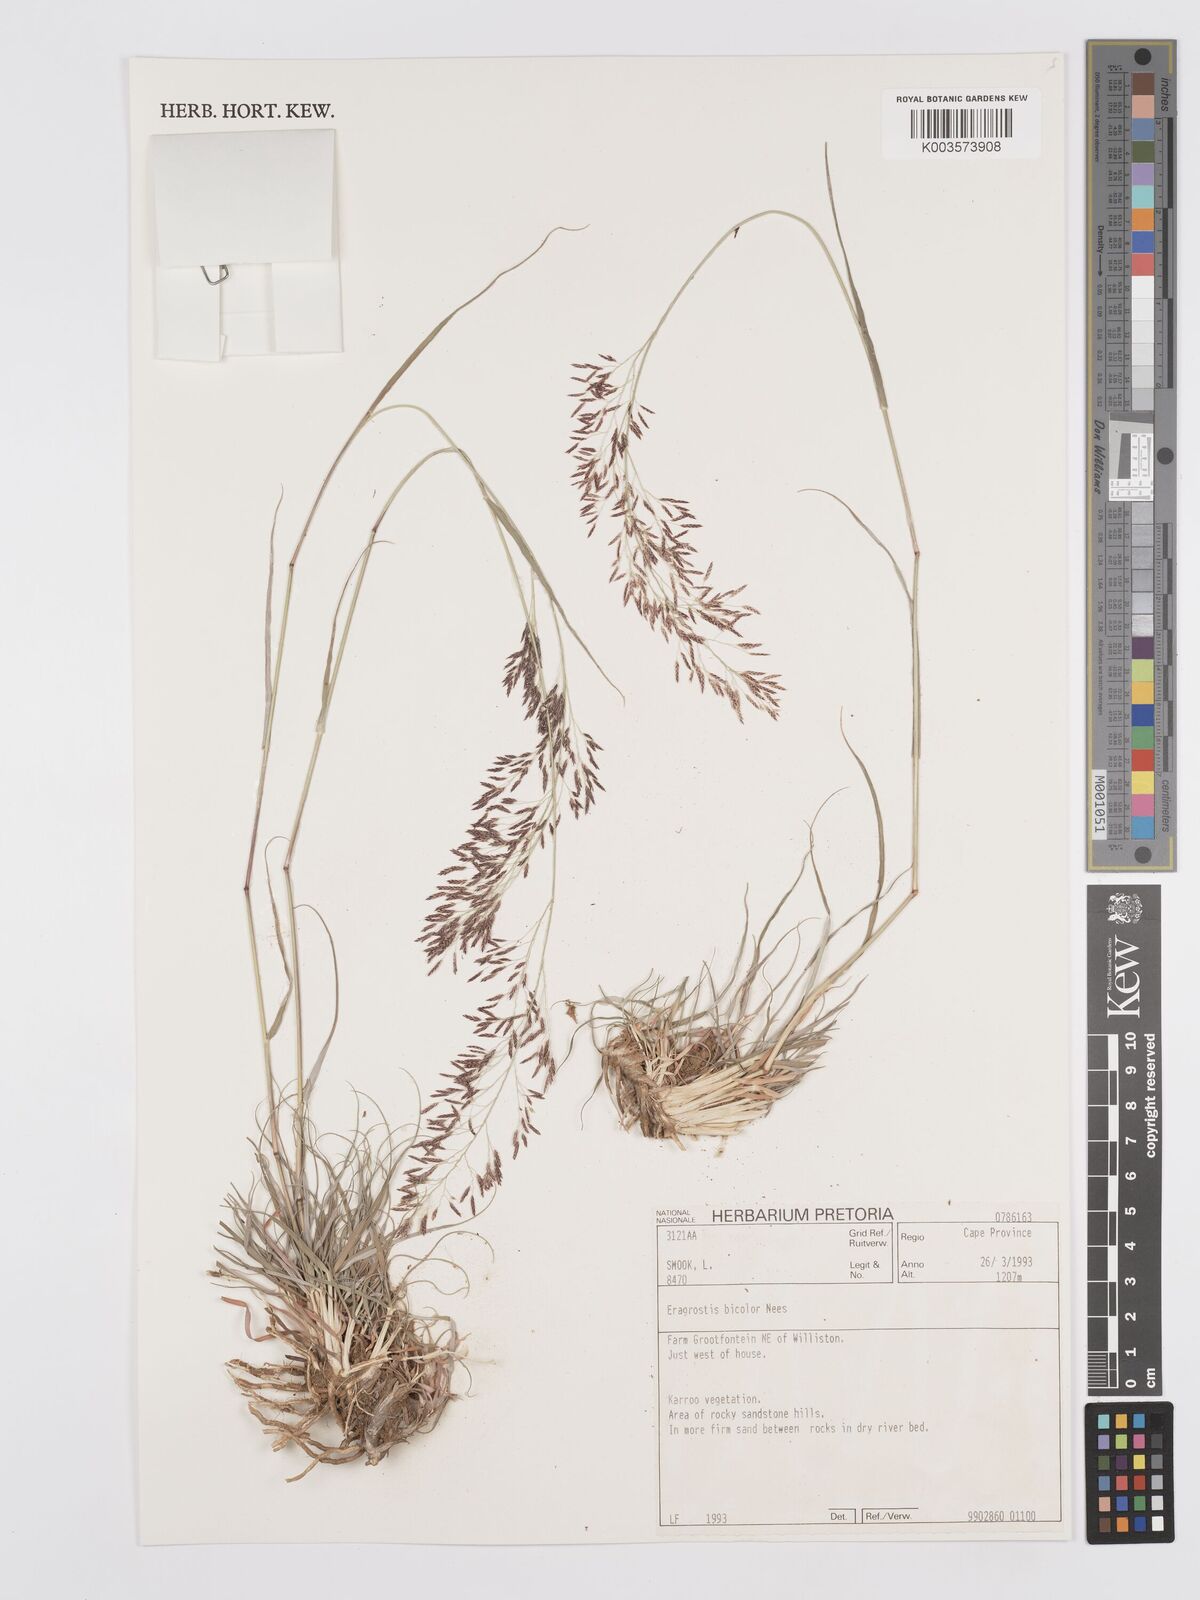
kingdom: Plantae
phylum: Tracheophyta
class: Liliopsida
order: Poales
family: Poaceae
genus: Eragrostis
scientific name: Eragrostis
